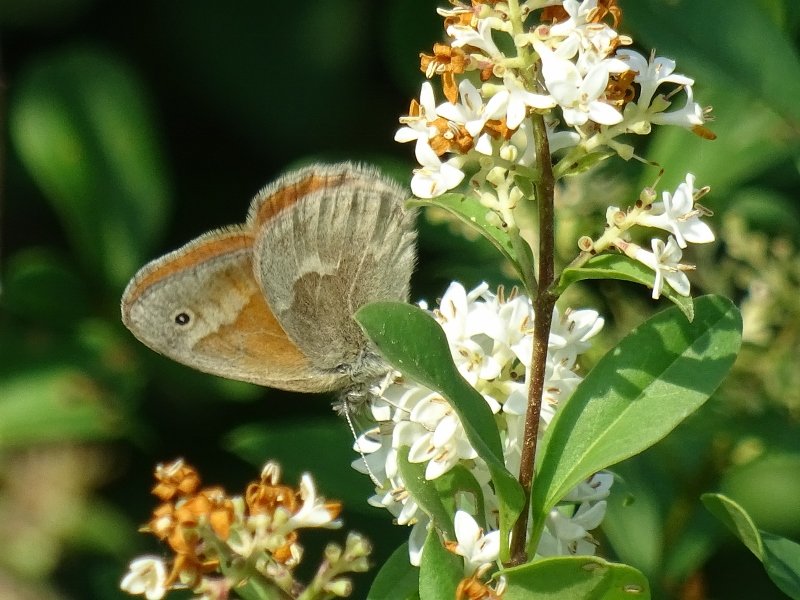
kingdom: Animalia
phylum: Arthropoda
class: Insecta
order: Lepidoptera
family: Nymphalidae
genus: Coenonympha
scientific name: Coenonympha tullia
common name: Large Heath
